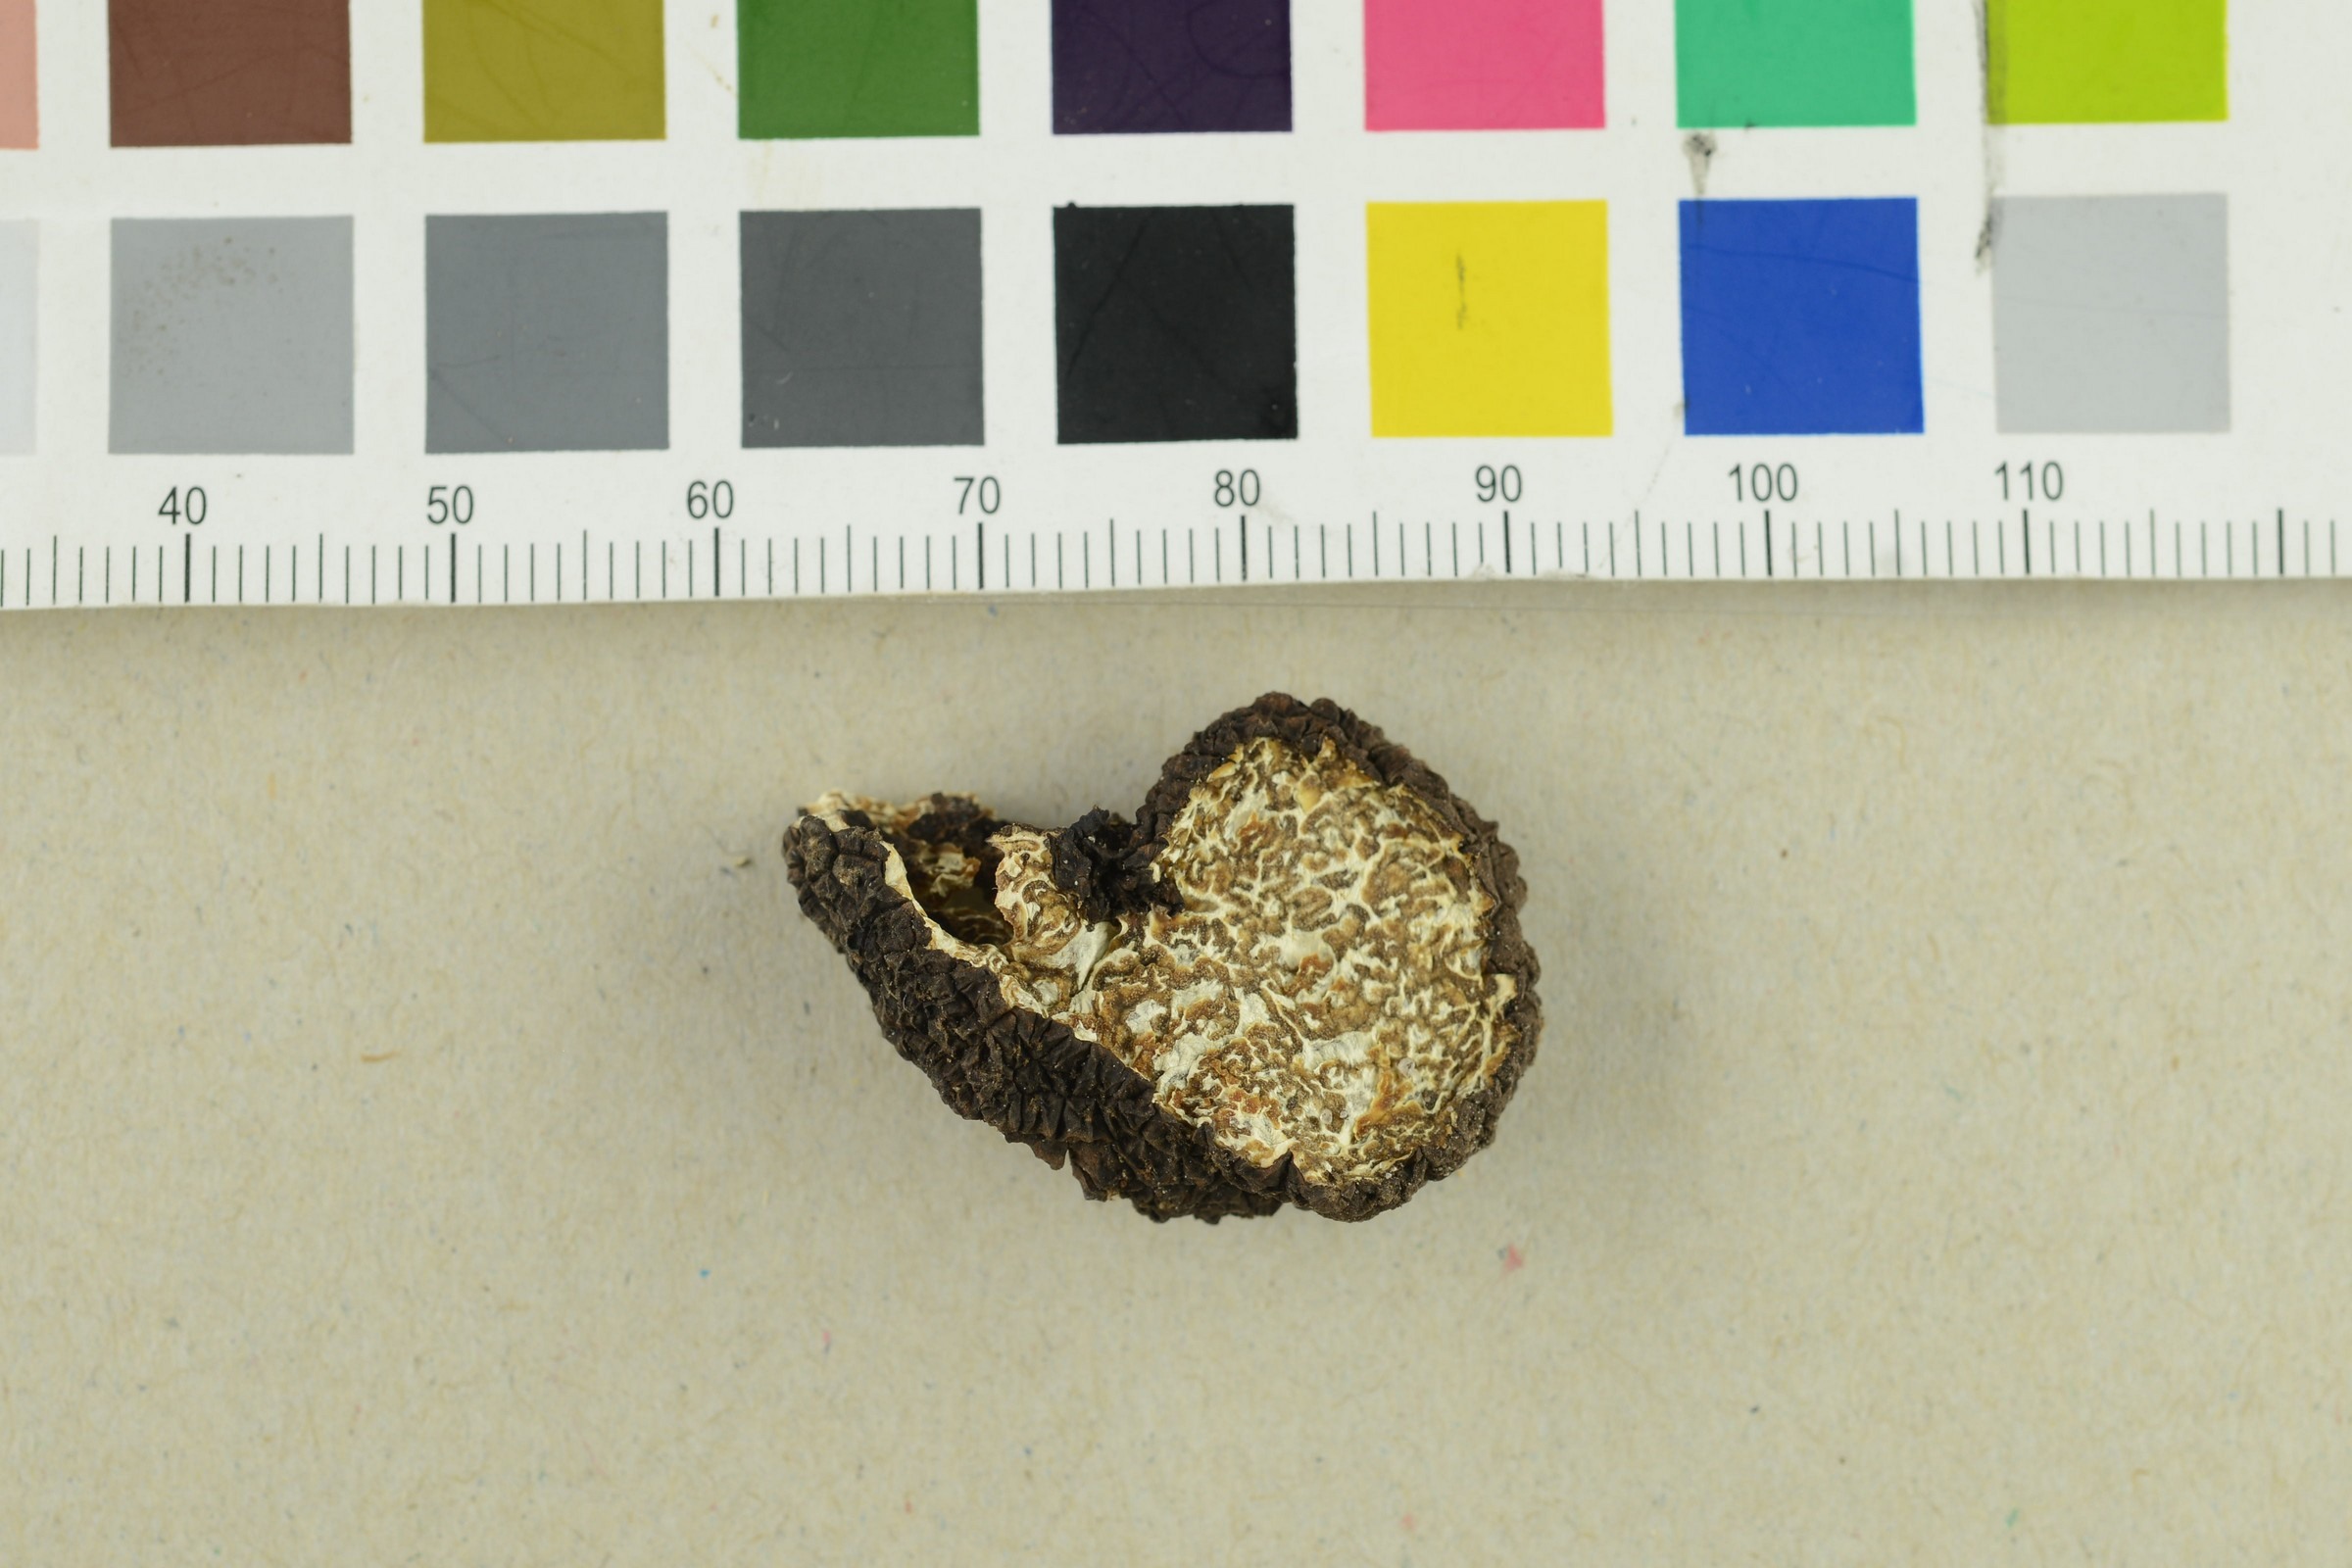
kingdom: Fungi
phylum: Ascomycota
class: Pezizomycetes
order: Pezizales
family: Tuberaceae
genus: Tuber
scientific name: Tuber aestivum
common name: Summer truffle
